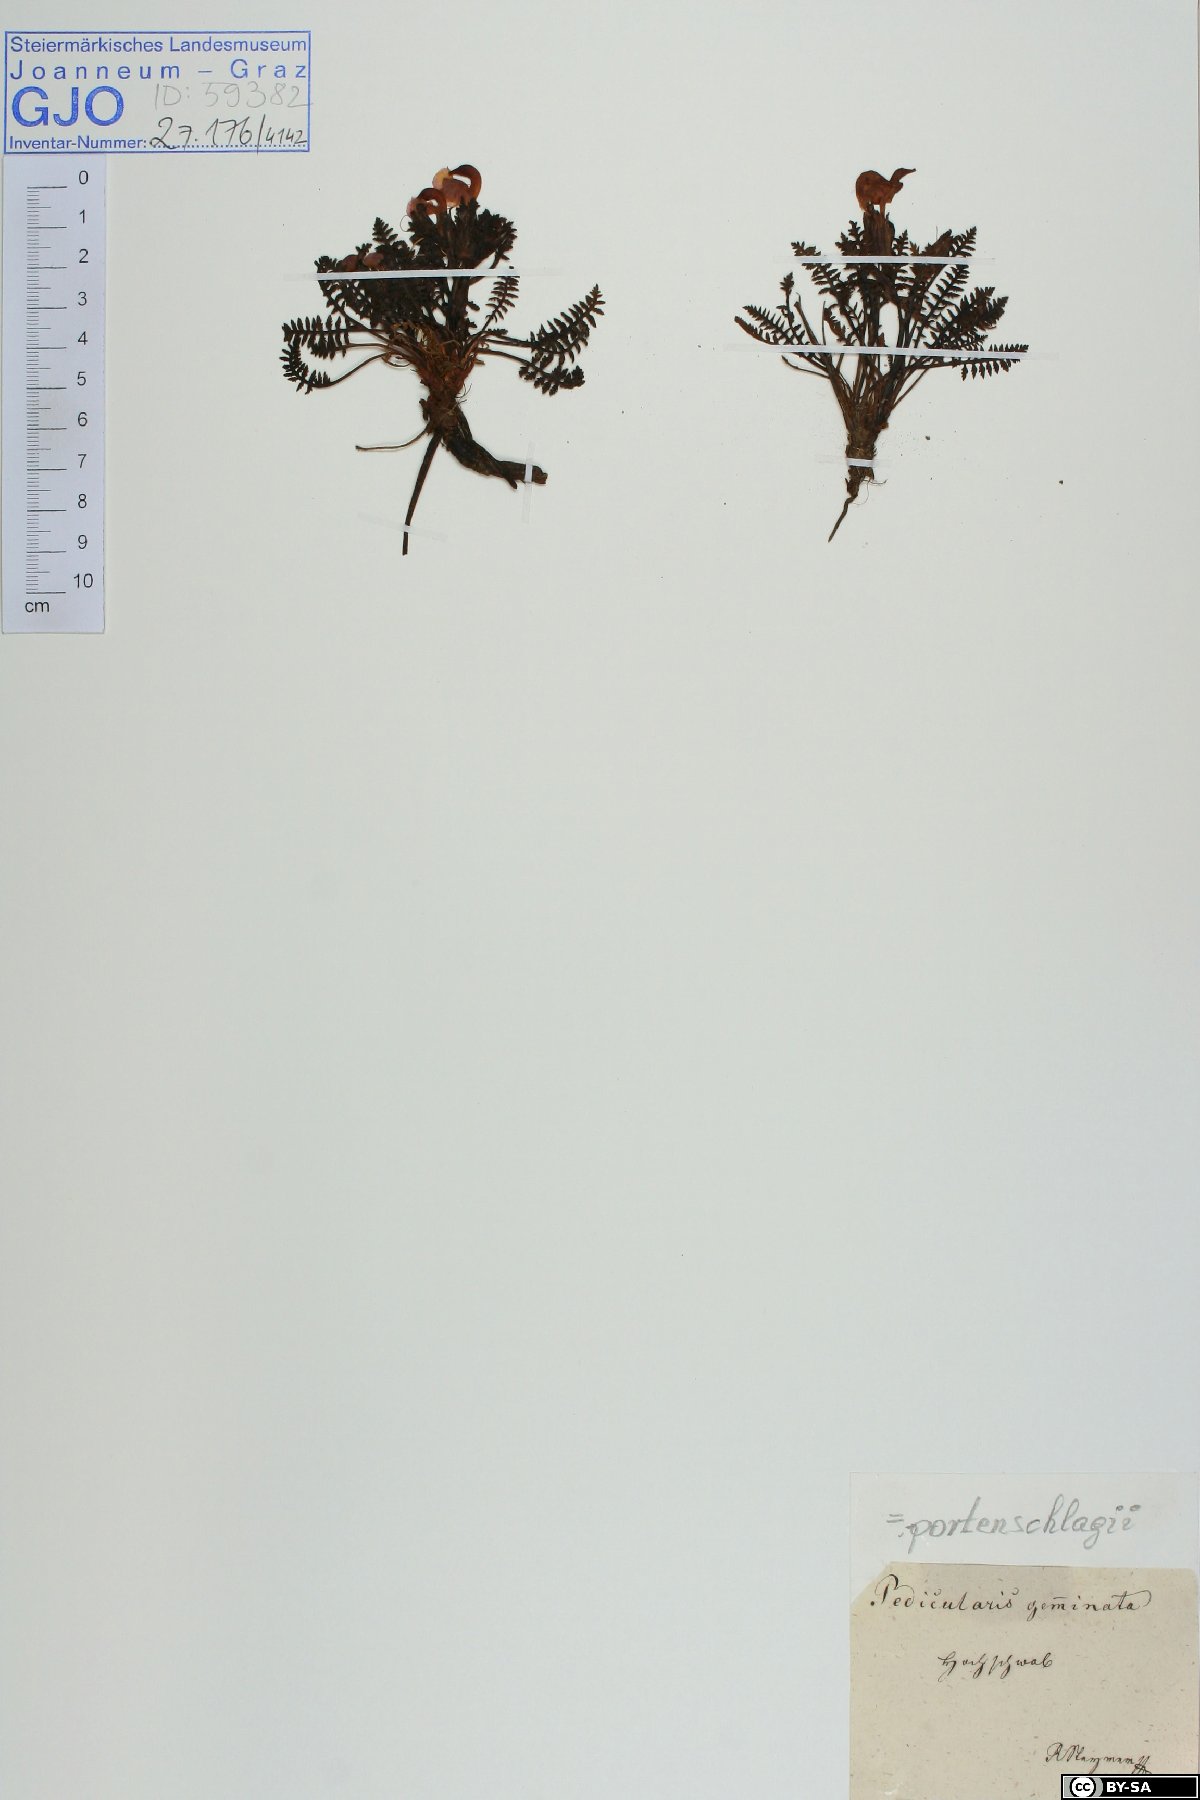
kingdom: Plantae
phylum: Tracheophyta
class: Magnoliopsida
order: Lamiales
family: Orobanchaceae
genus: Pedicularis
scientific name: Pedicularis portenschlagii
